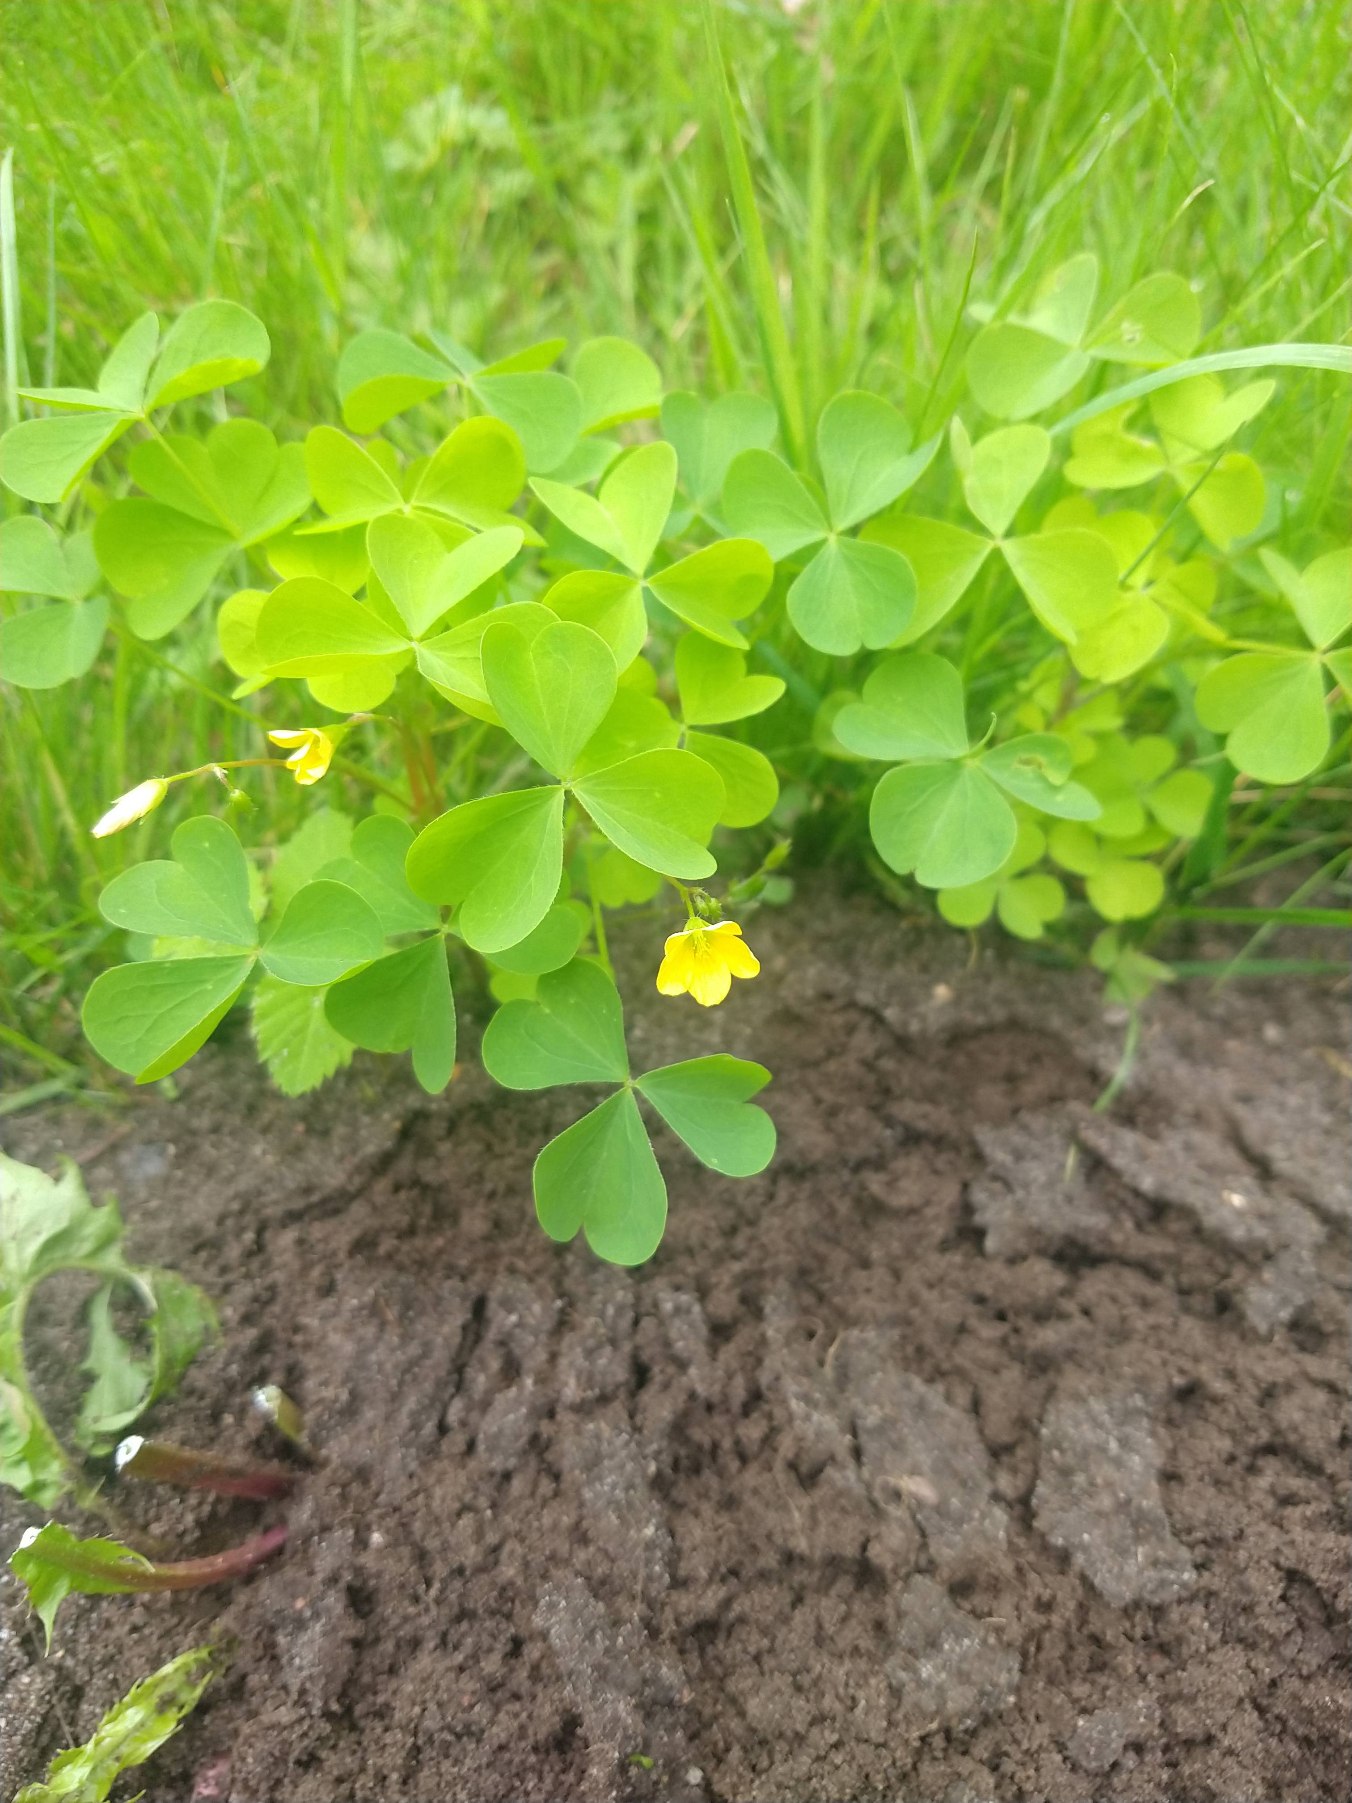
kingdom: Plantae
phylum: Tracheophyta
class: Magnoliopsida
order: Oxalidales
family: Oxalidaceae
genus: Oxalis
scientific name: Oxalis stricta
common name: Rank surkløver
